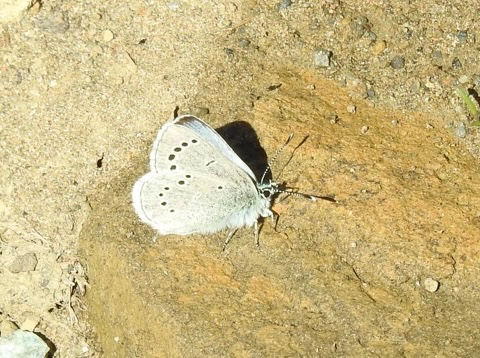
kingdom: Animalia
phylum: Arthropoda
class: Insecta
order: Lepidoptera
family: Lycaenidae
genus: Glaucopsyche
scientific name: Glaucopsyche lygdamus
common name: Silvery Blue
